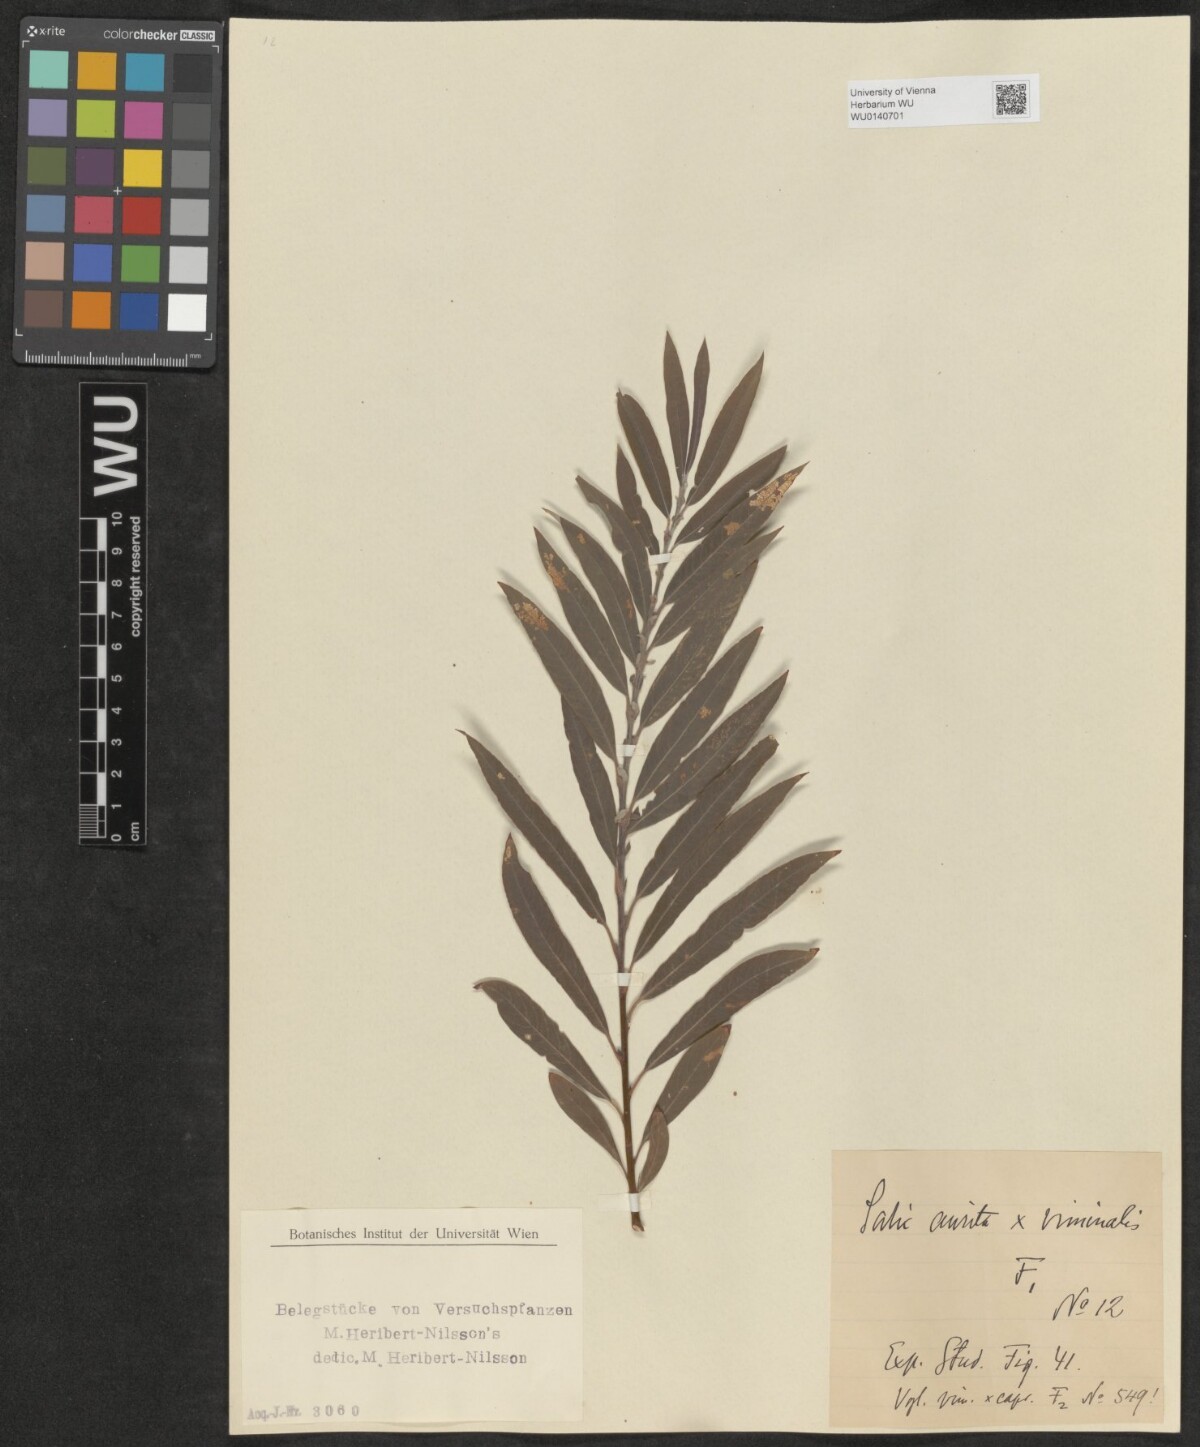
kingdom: Plantae
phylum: Tracheophyta
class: Magnoliopsida
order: Malpighiales
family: Salicaceae
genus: Salix
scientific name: Salix
